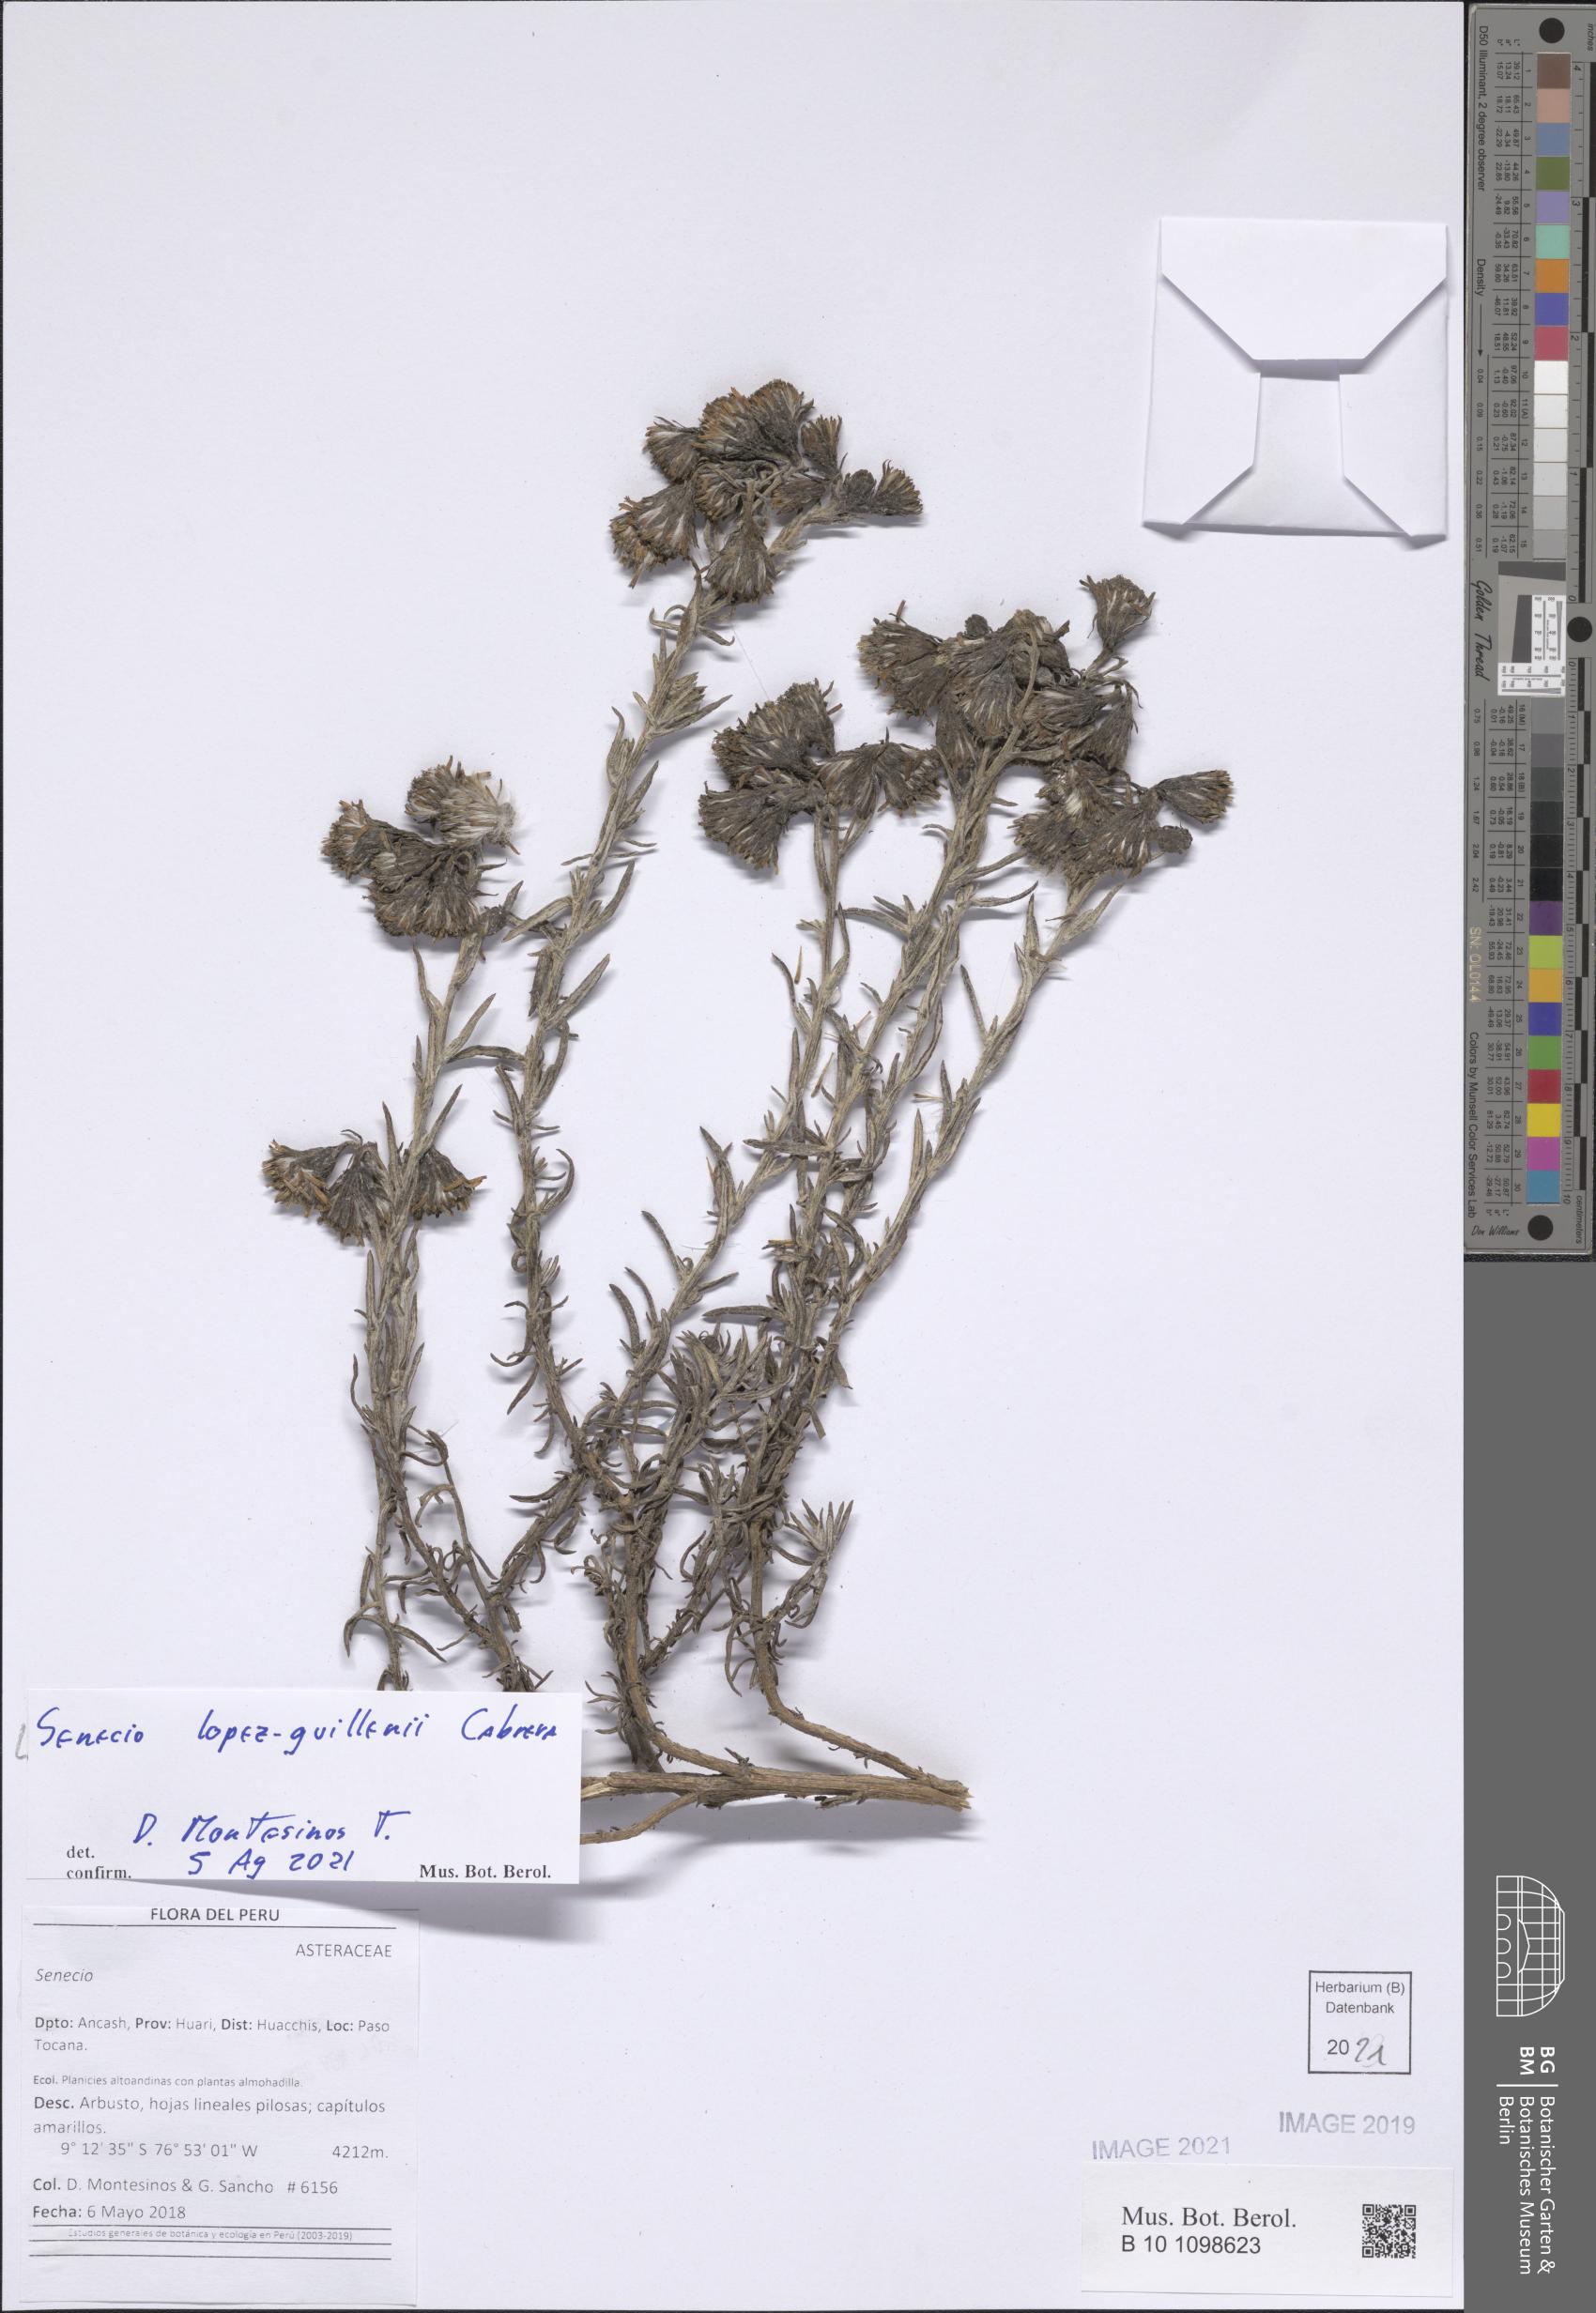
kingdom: Plantae
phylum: Tracheophyta
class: Magnoliopsida
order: Asterales
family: Asteraceae
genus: Senecio
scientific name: Senecio lopez-guillenii
